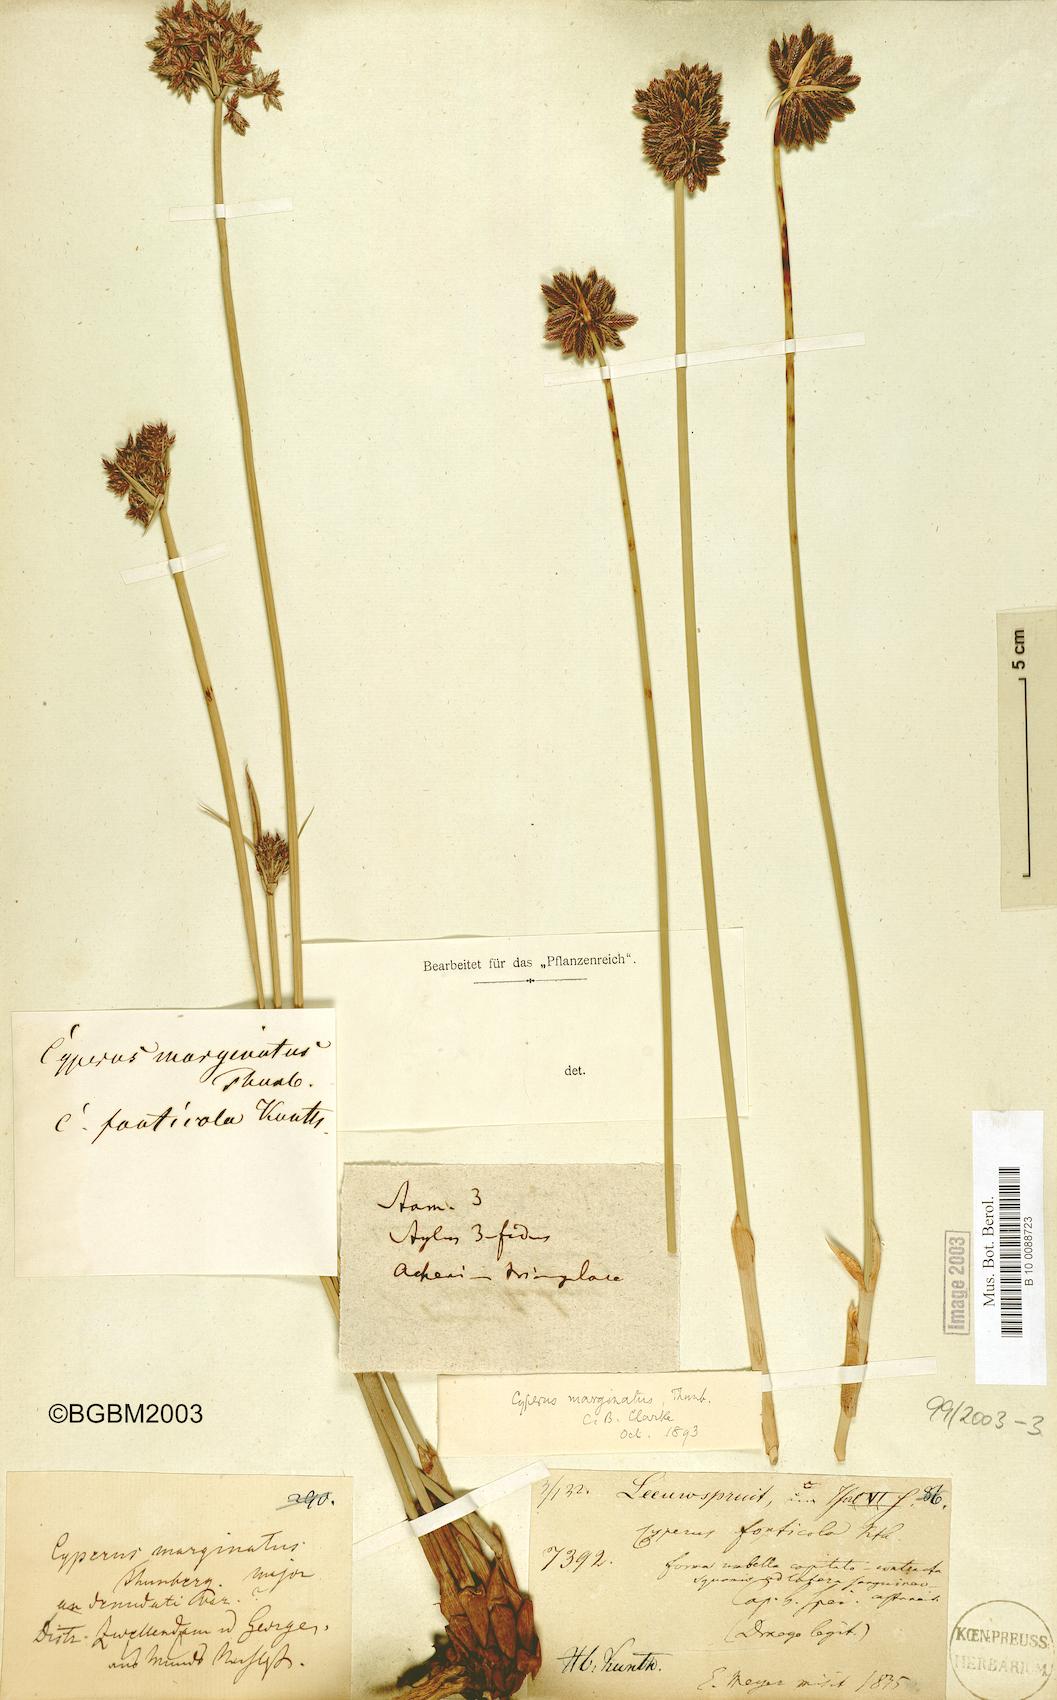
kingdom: Plantae
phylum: Tracheophyta
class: Liliopsida
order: Poales
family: Cyperaceae
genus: Cyperus
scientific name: Cyperus marginatus
